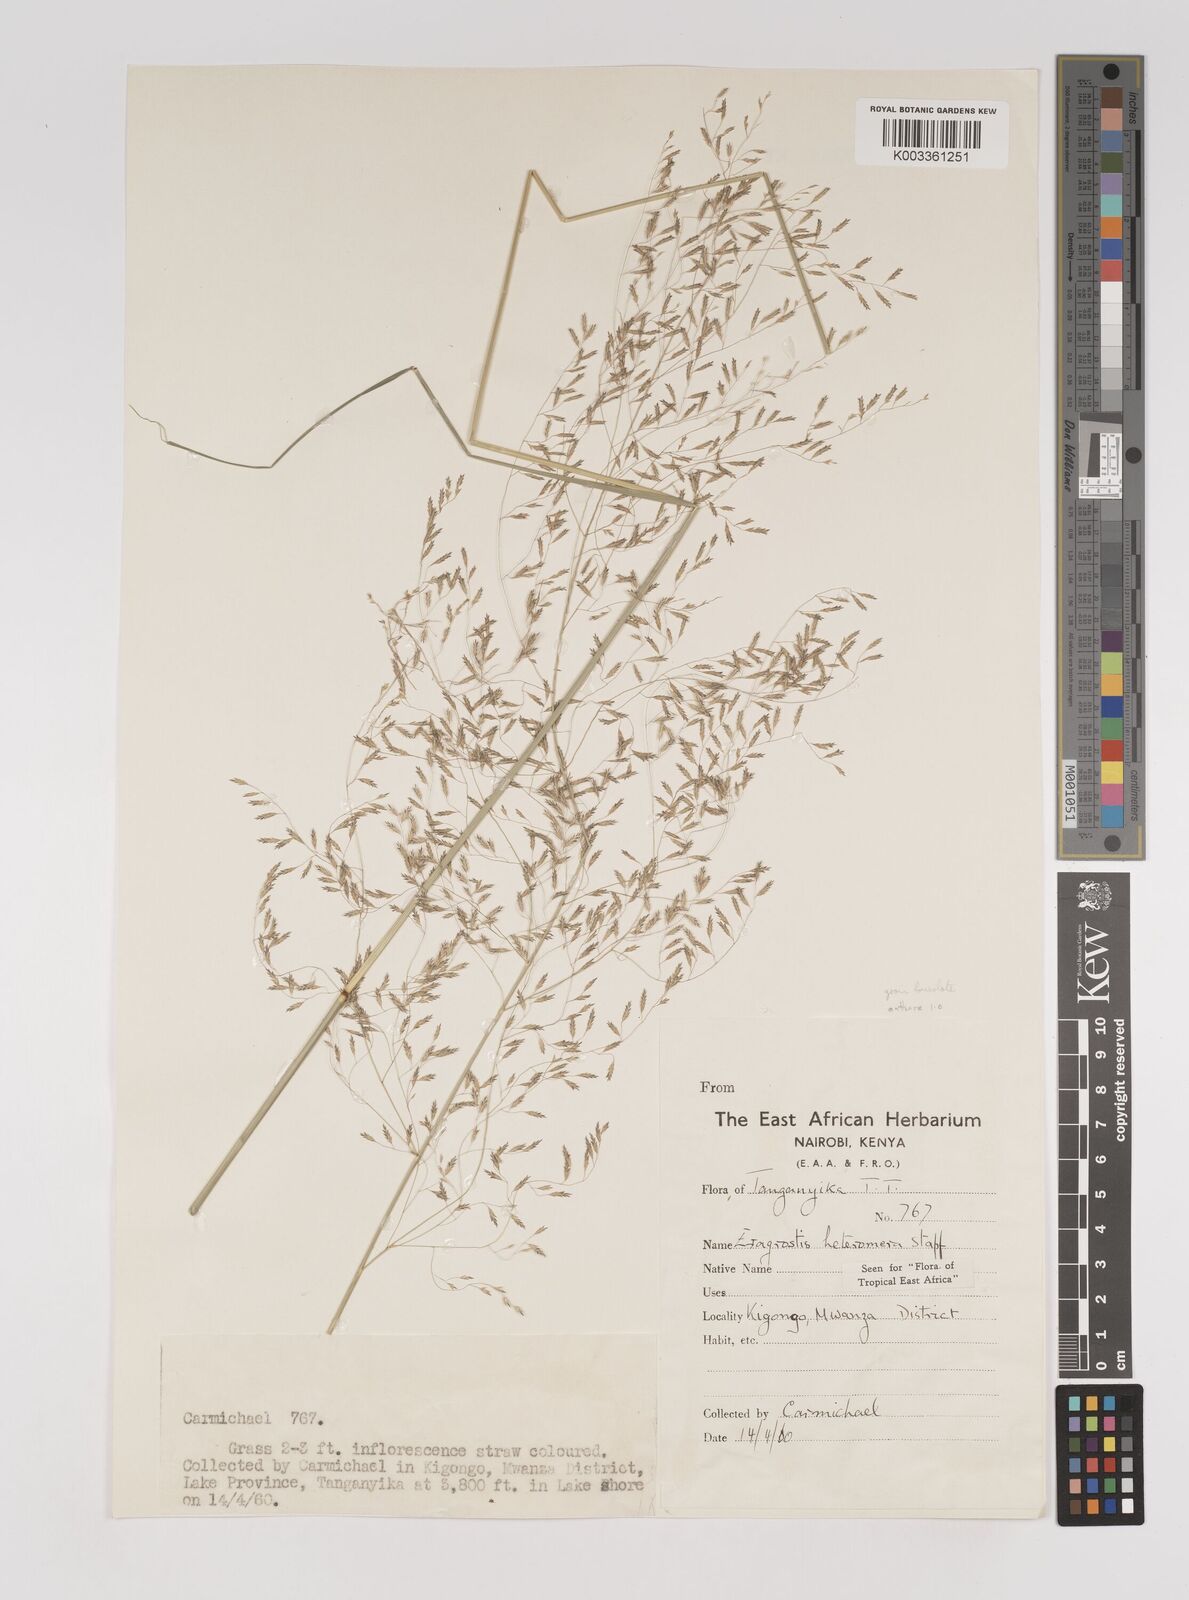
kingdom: Plantae
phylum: Tracheophyta
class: Liliopsida
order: Poales
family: Poaceae
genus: Eragrostis
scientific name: Eragrostis heteromera
